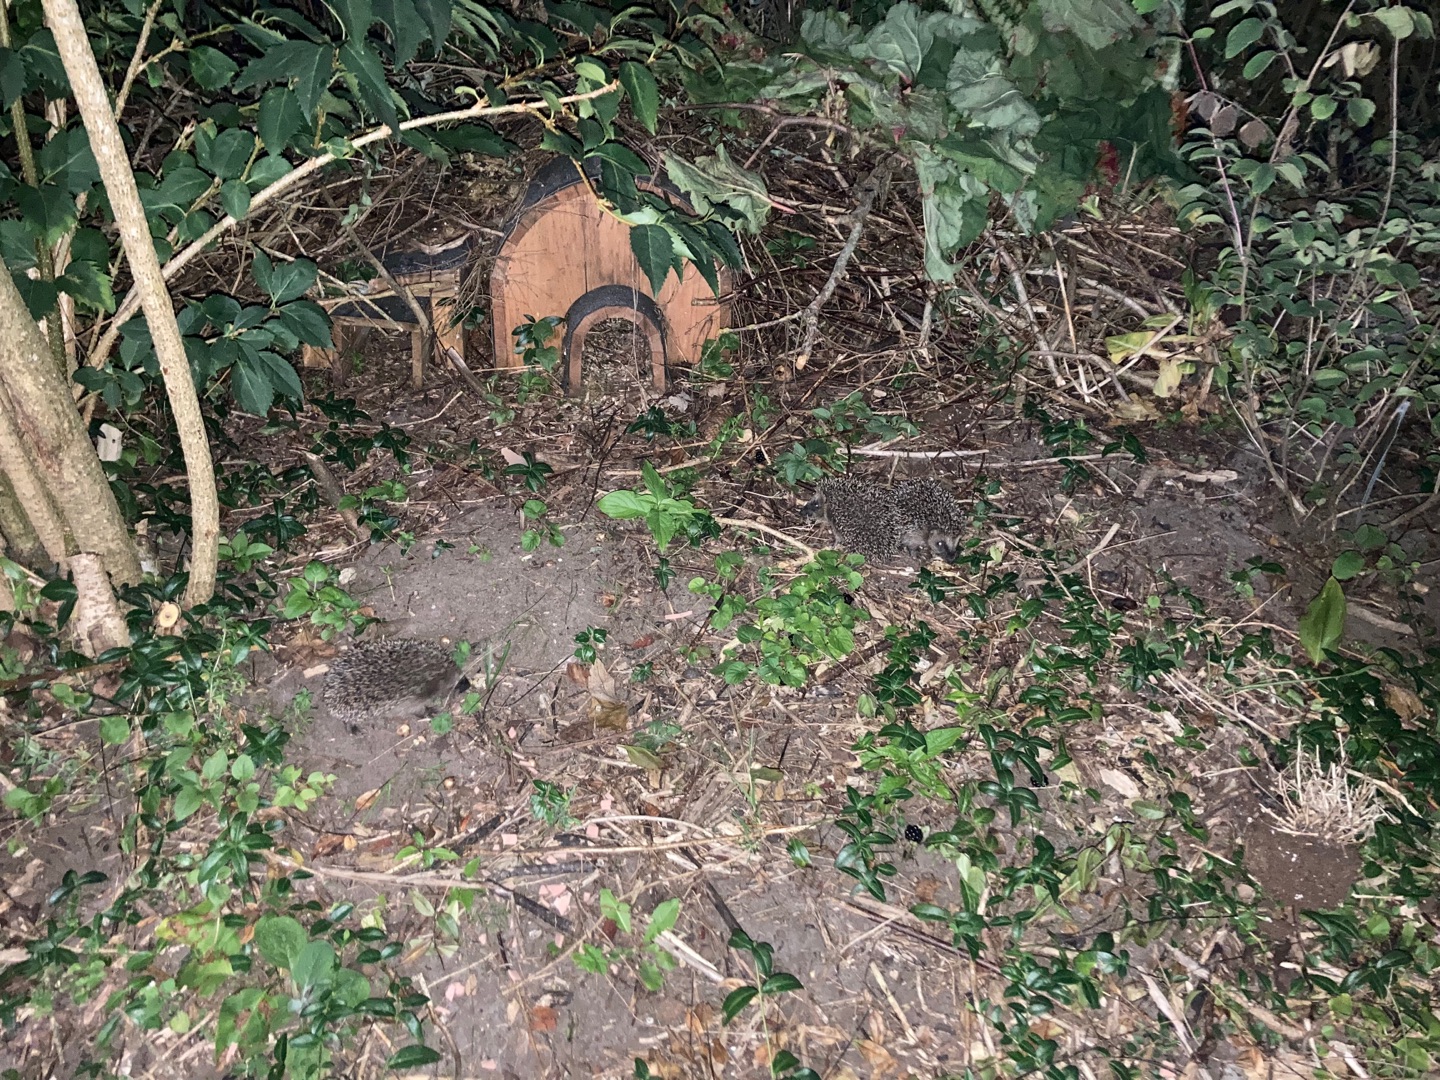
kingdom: Animalia
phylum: Chordata
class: Mammalia
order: Erinaceomorpha
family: Erinaceidae
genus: Erinaceus
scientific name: Erinaceus europaeus
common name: Pindsvin
